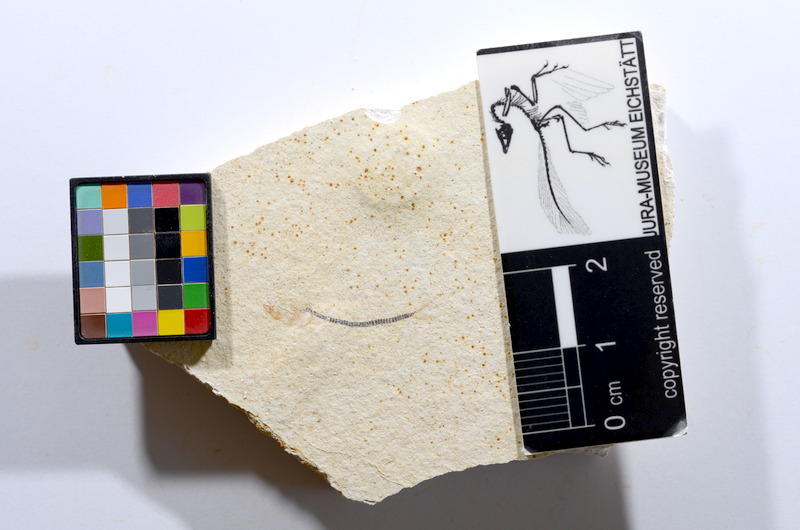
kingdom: Animalia
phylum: Chordata
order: Salmoniformes
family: Orthogonikleithridae
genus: Orthogonikleithrus
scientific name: Orthogonikleithrus hoelli
